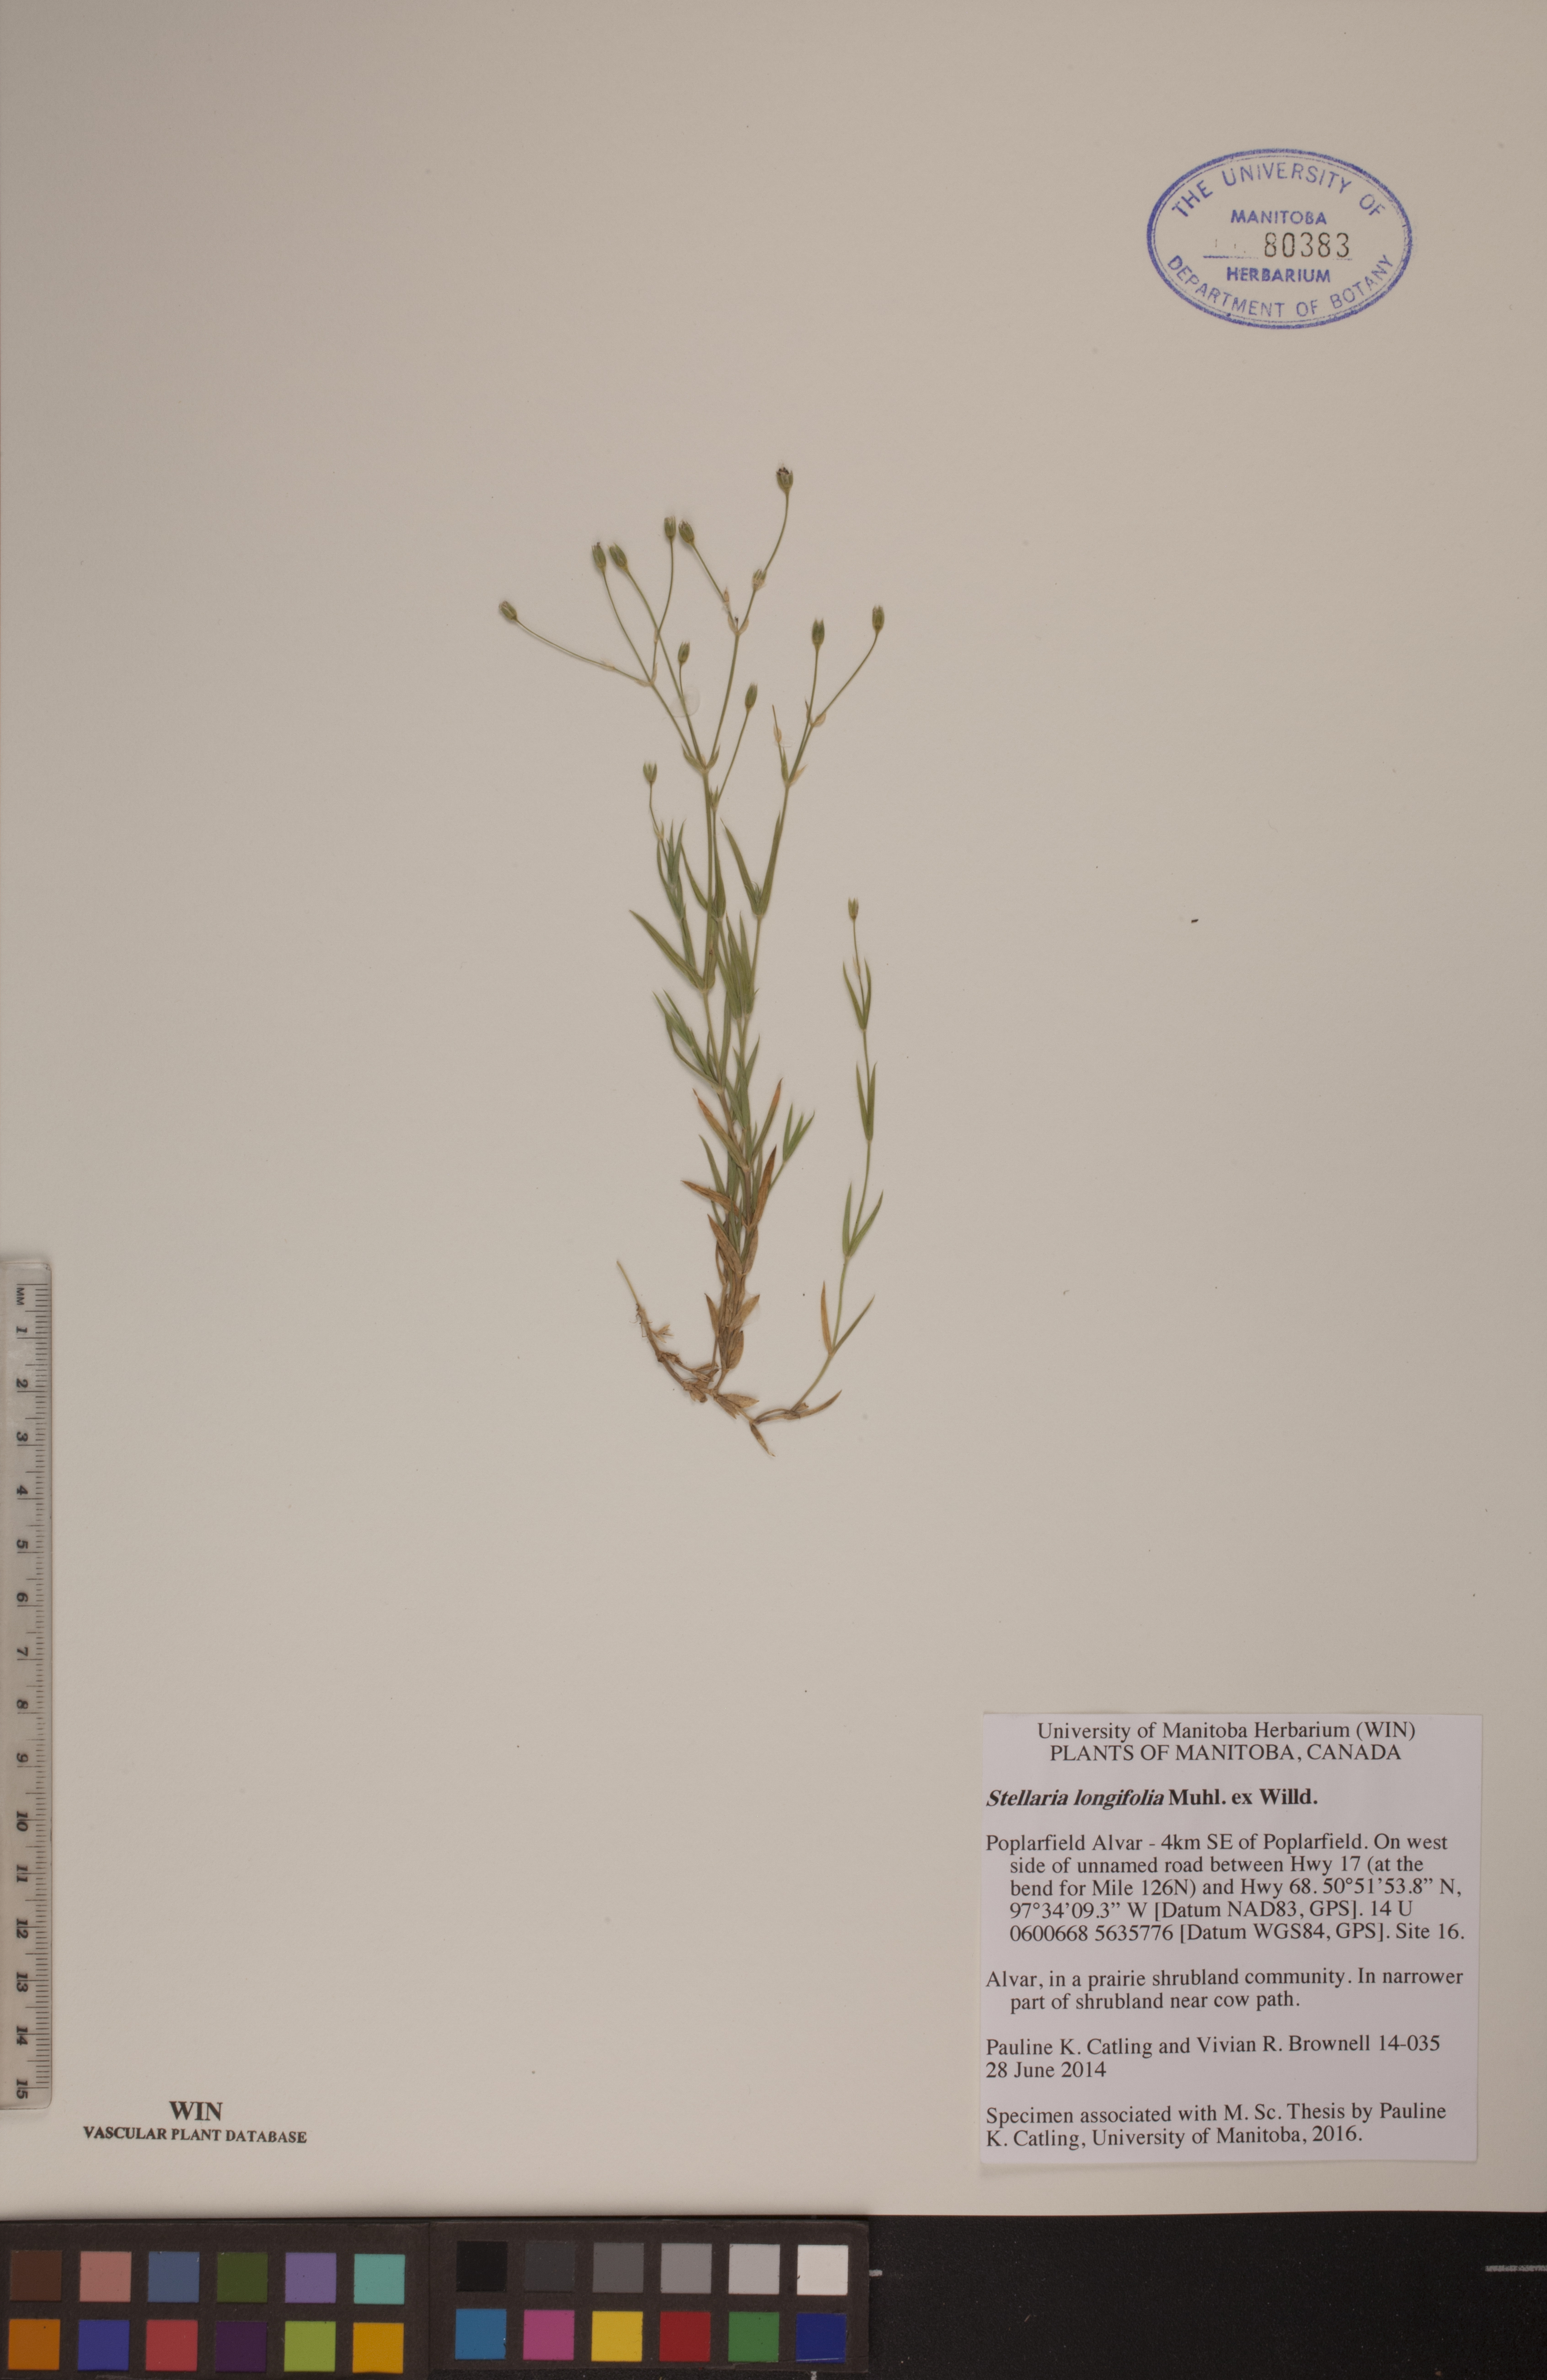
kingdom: Plantae
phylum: Tracheophyta
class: Magnoliopsida
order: Caryophyllales
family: Caryophyllaceae
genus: Stellaria
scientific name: Stellaria longifolia
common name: Long-leaved chickweed
